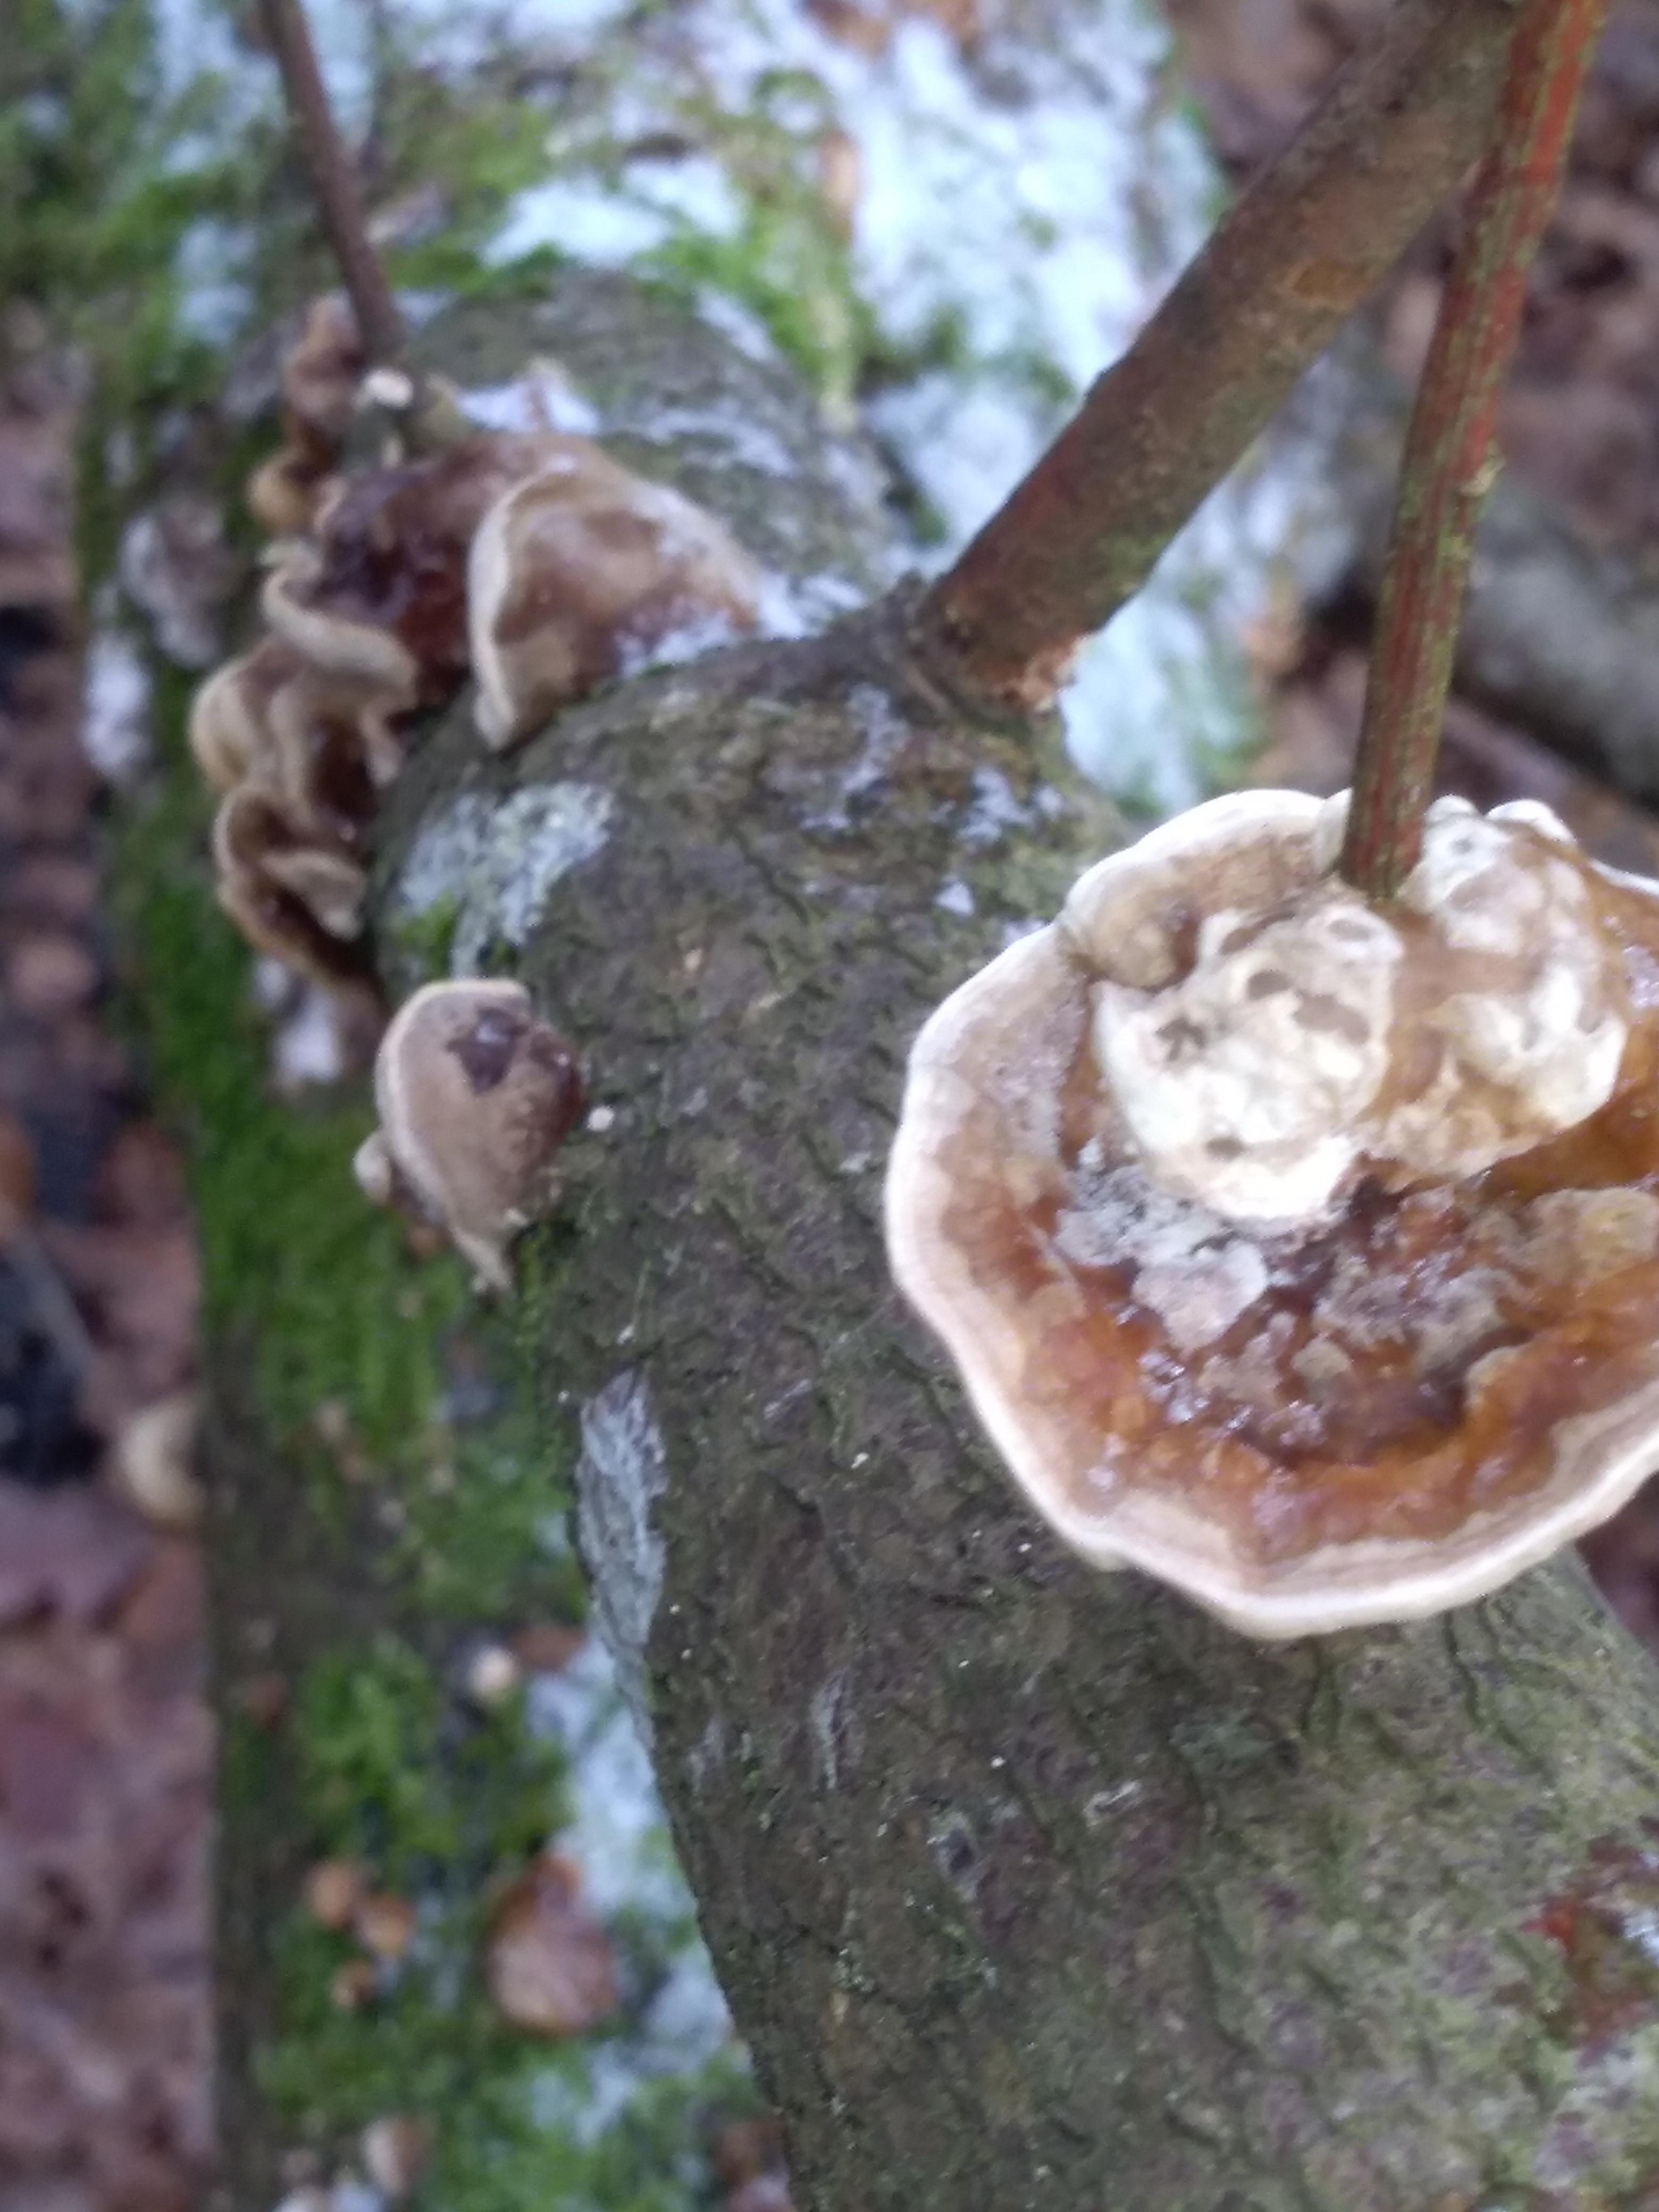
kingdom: Fungi
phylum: Basidiomycota
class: Agaricomycetes
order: Polyporales
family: Polyporaceae
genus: Trametes
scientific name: Trametes versicolor
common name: broget læderporesvamp
